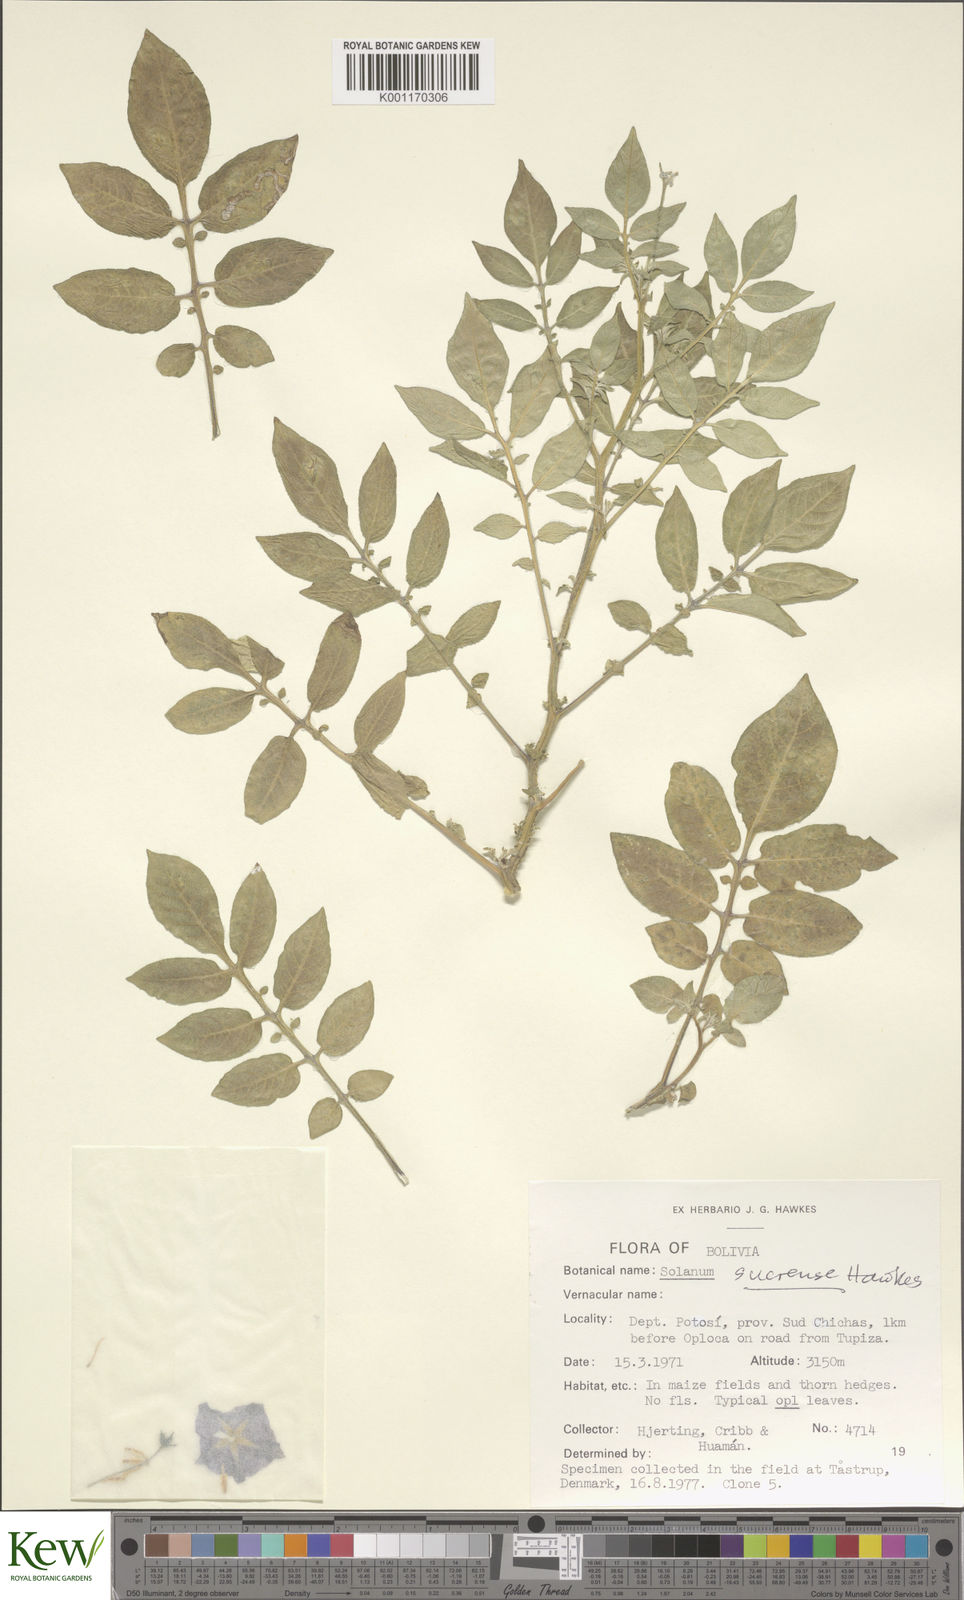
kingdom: Plantae
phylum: Tracheophyta
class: Magnoliopsida
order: Solanales
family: Solanaceae
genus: Solanum
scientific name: Solanum brevicaule
